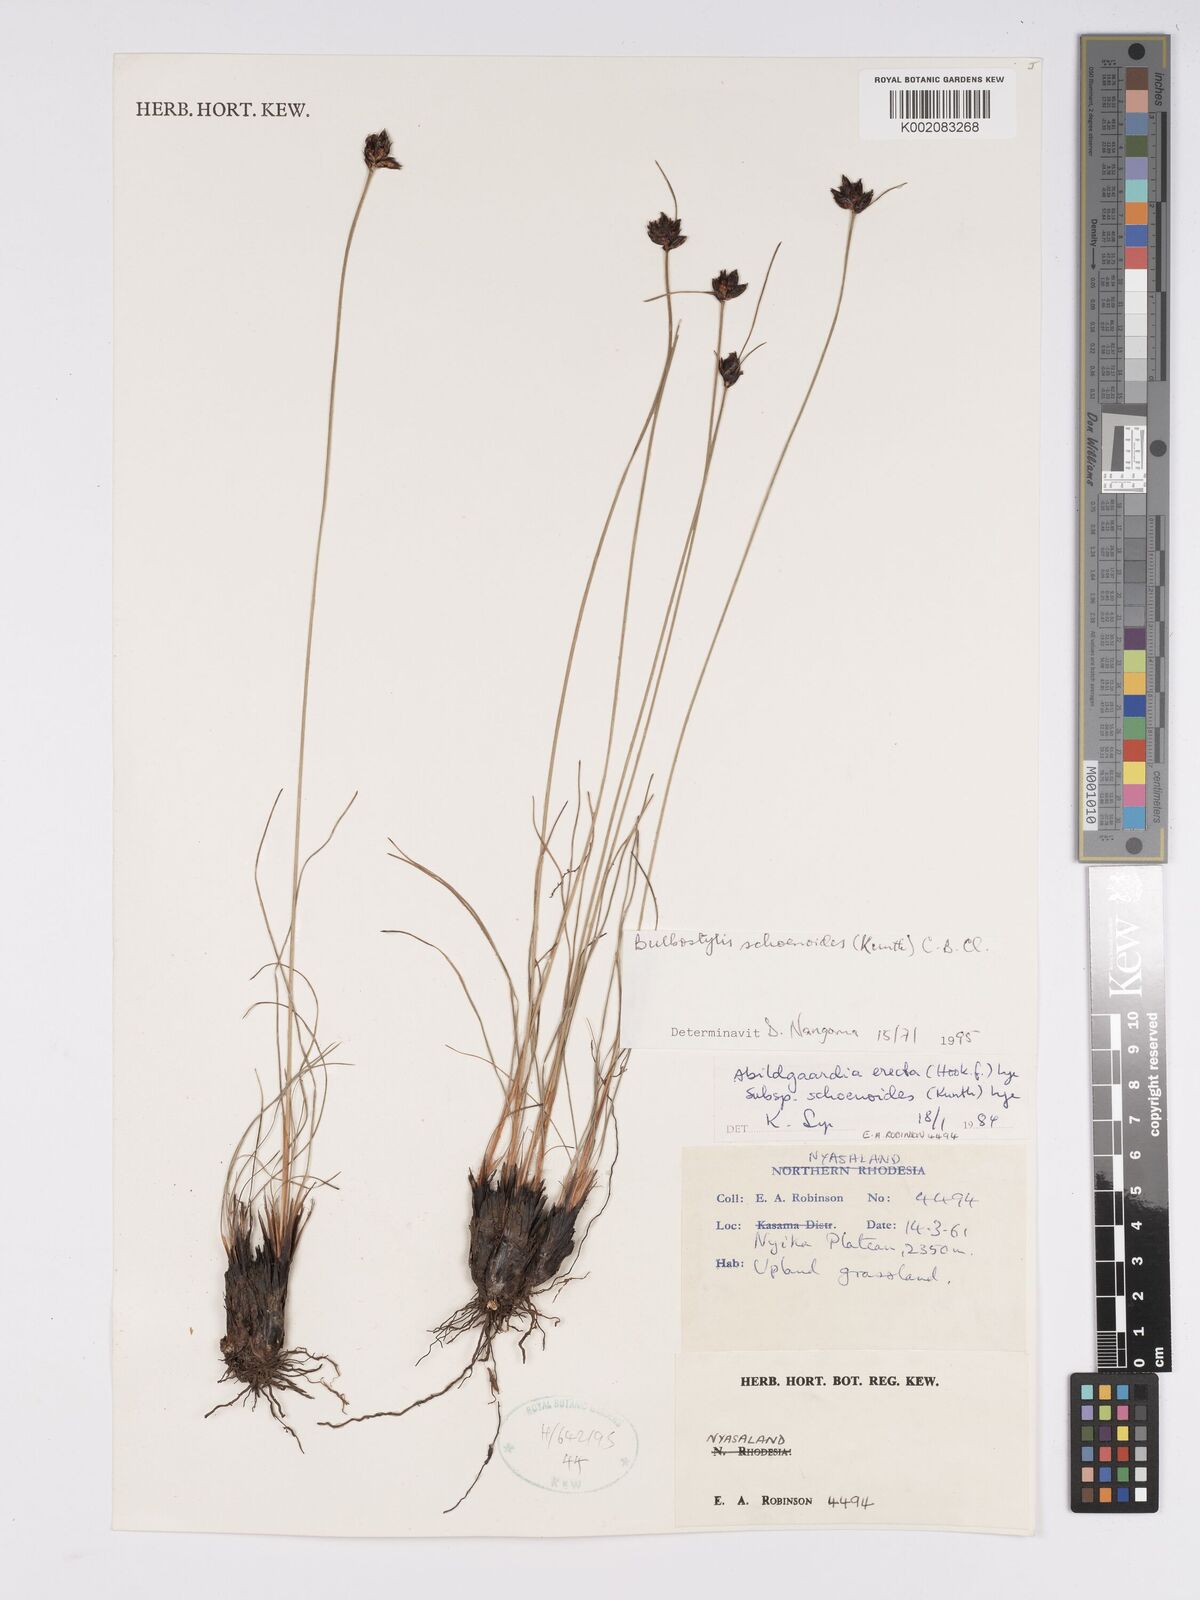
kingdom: Plantae
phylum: Tracheophyta
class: Liliopsida
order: Poales
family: Cyperaceae
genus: Bulbostylis
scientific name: Bulbostylis schoenoides
